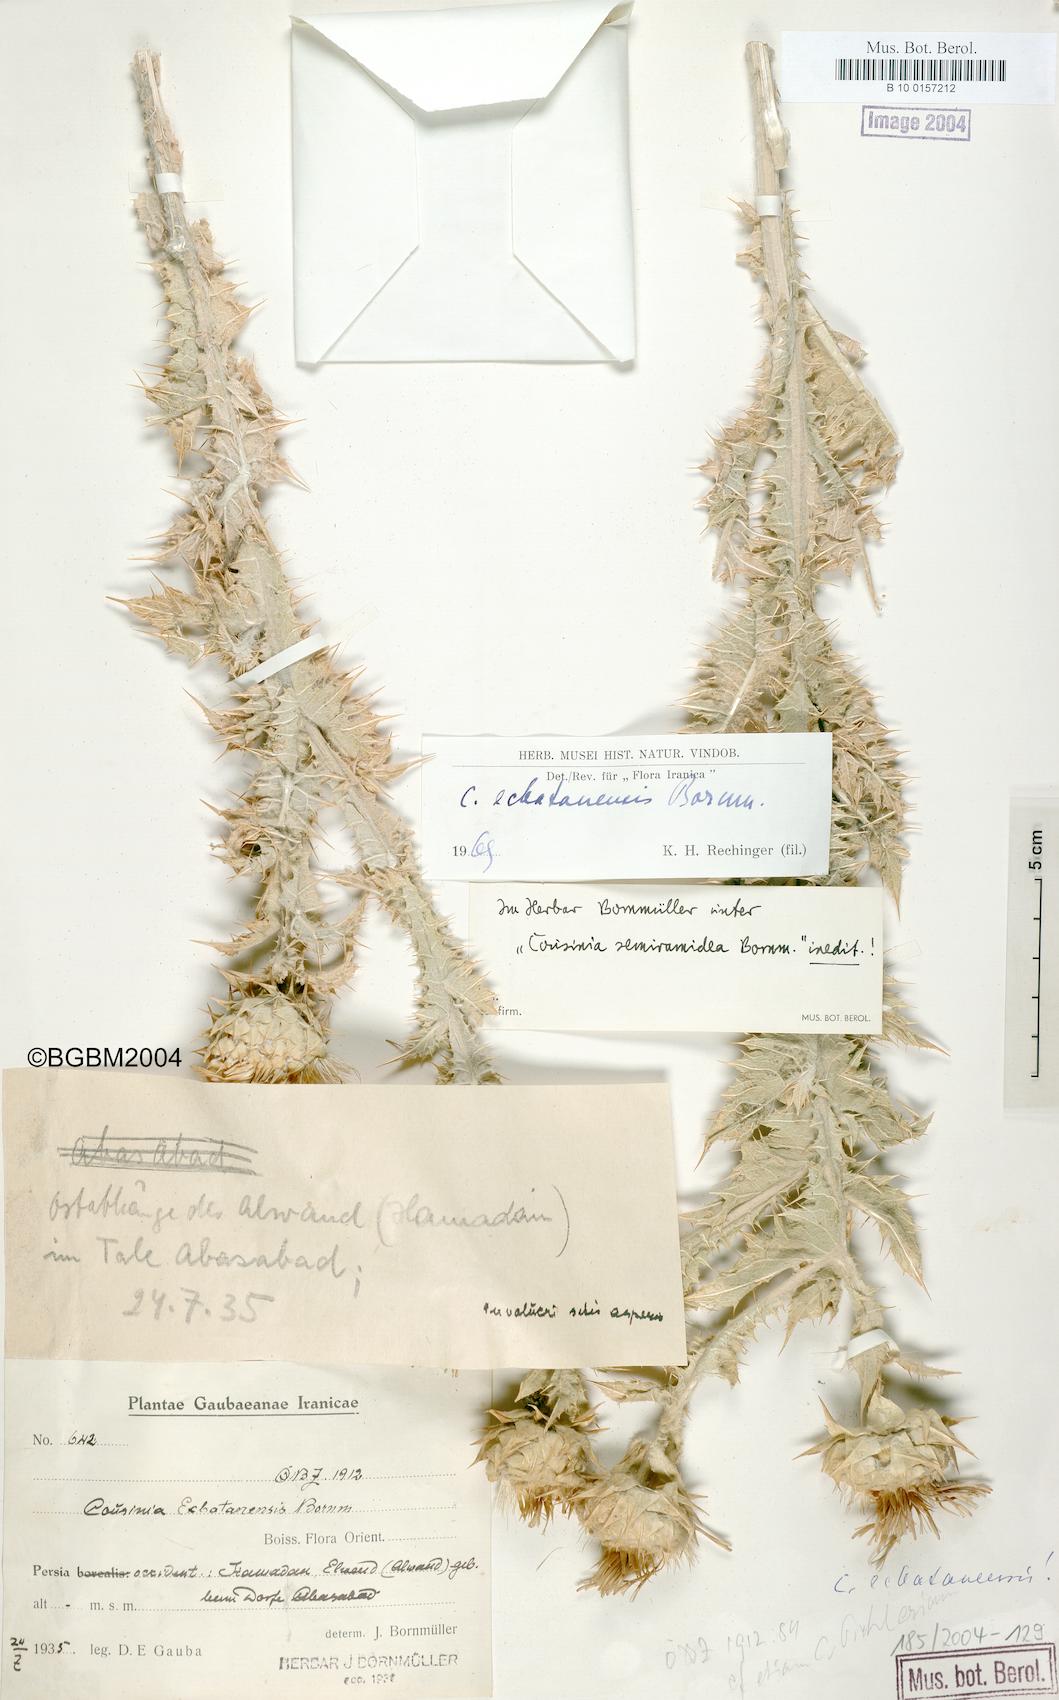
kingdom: Plantae
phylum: Tracheophyta
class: Magnoliopsida
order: Asterales
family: Asteraceae
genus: Cousinia
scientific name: Cousinia ecbatanensis
